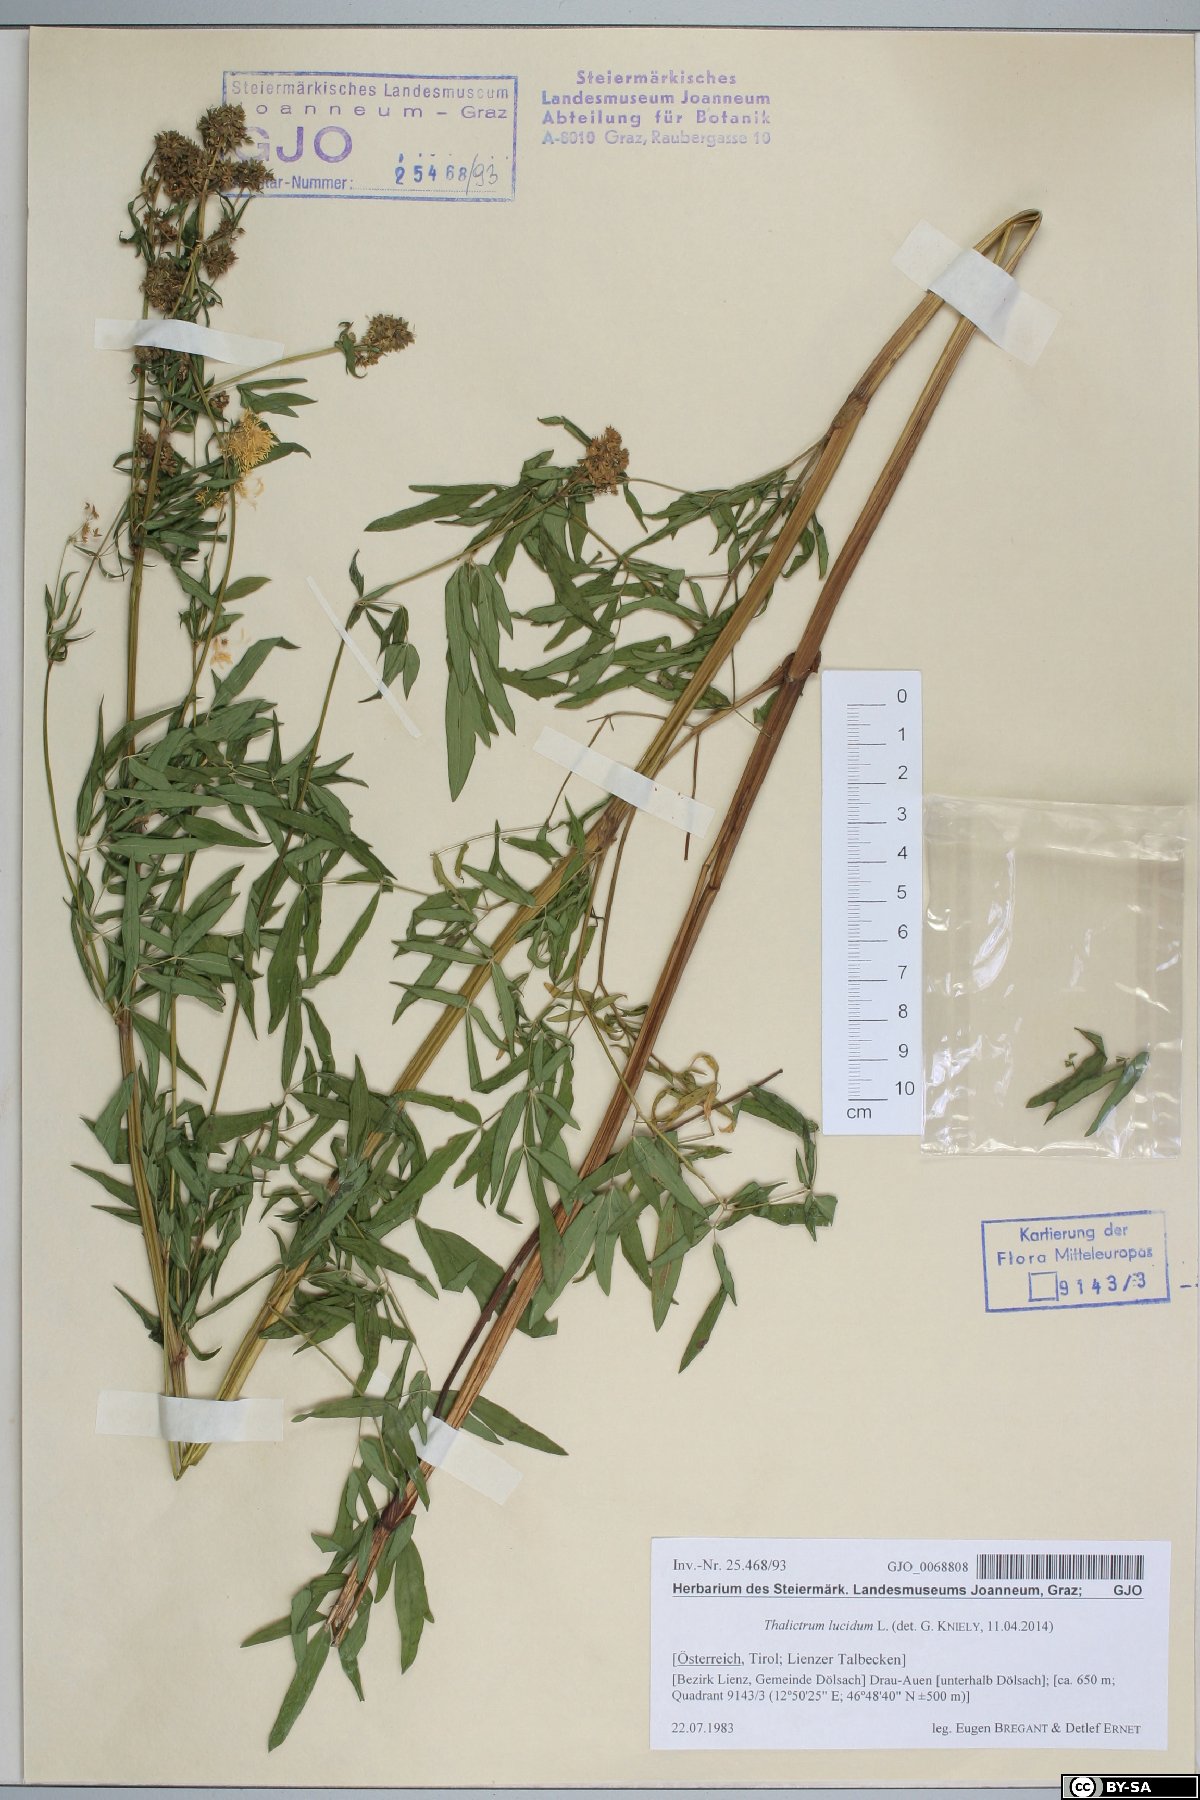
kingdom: Plantae
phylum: Tracheophyta
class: Magnoliopsida
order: Ranunculales
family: Ranunculaceae
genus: Thalictrum
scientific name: Thalictrum lucidum
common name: Shining meadow-rue
